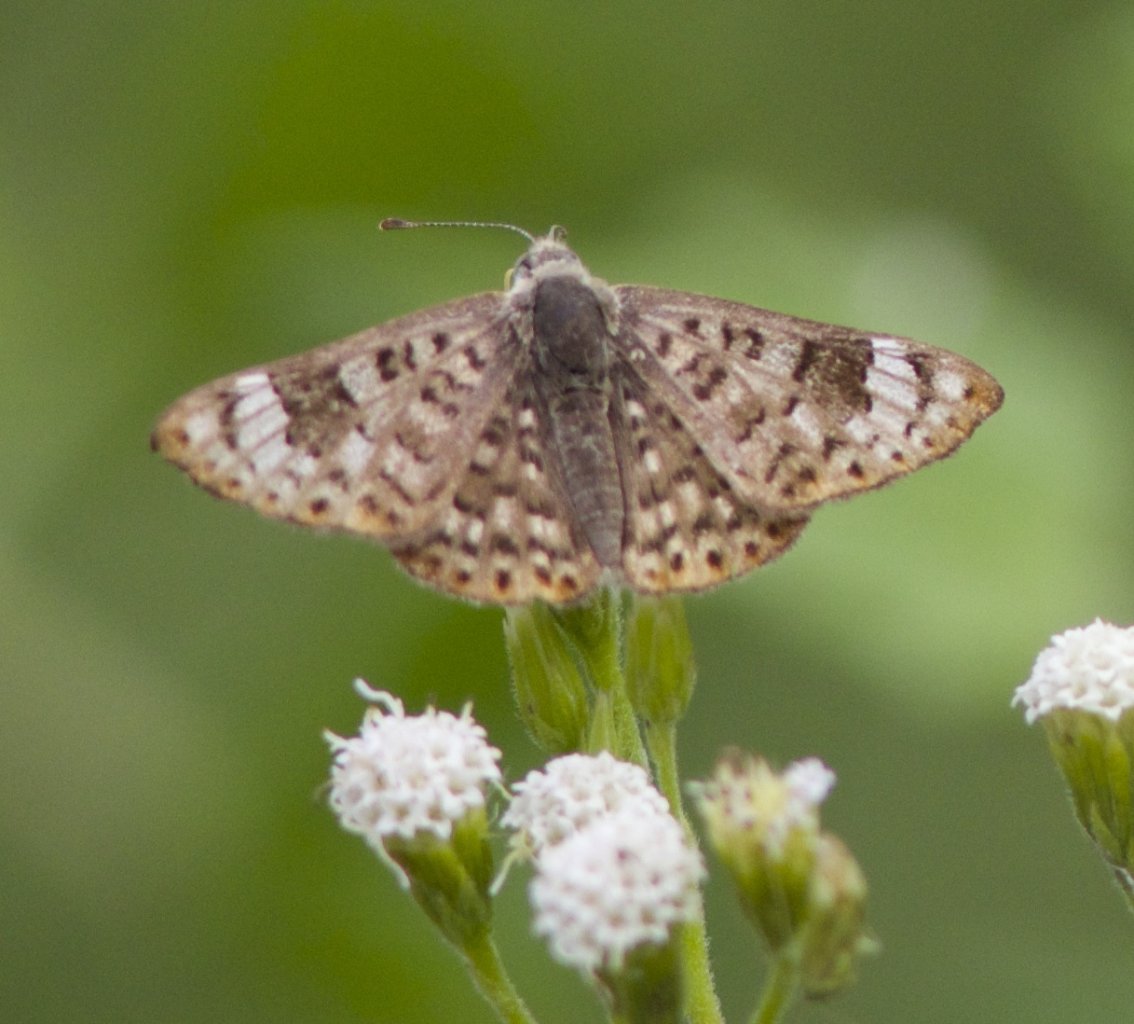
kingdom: Animalia
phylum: Arthropoda
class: Insecta
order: Lepidoptera
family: Riodinidae
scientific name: Riodinidae
